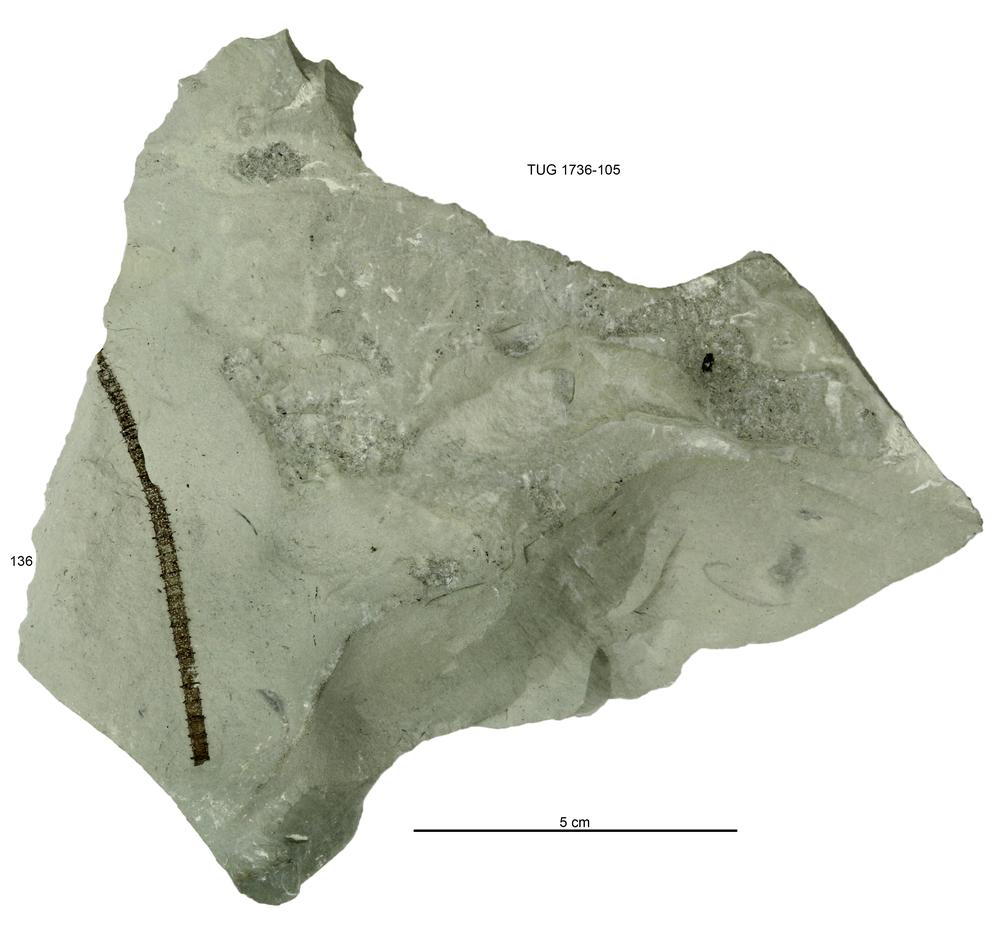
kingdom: Animalia
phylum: Echinodermata
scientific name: Echinodermata
